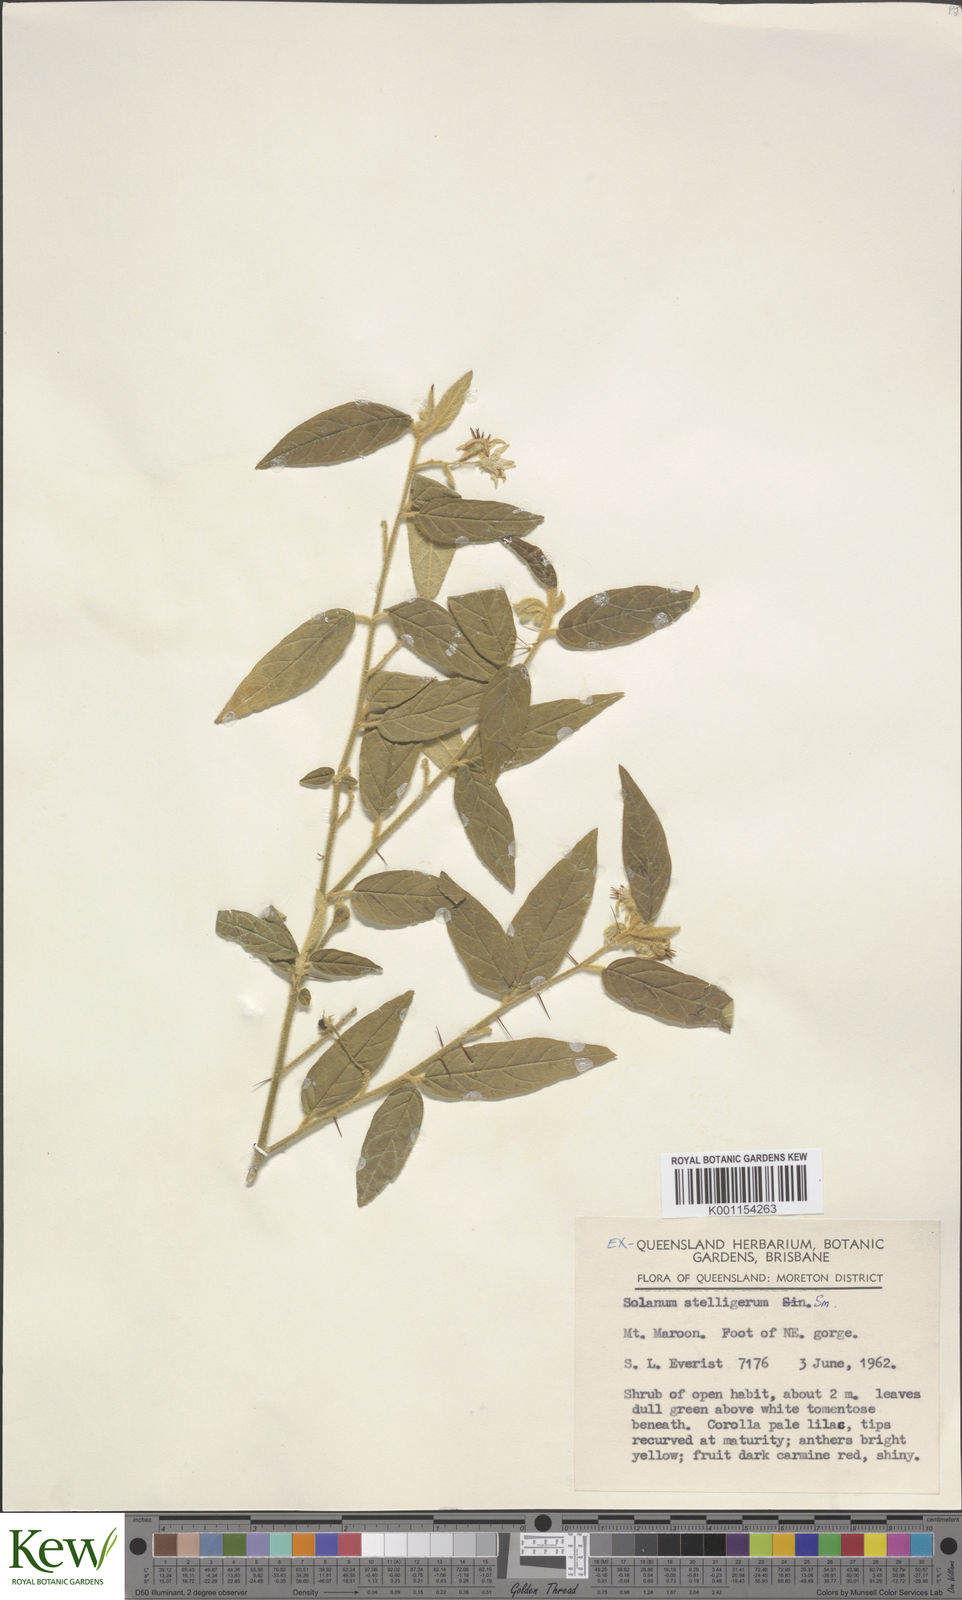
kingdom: Plantae
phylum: Tracheophyta
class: Magnoliopsida
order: Solanales
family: Solanaceae
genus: Solanum
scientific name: Solanum stelligerum
